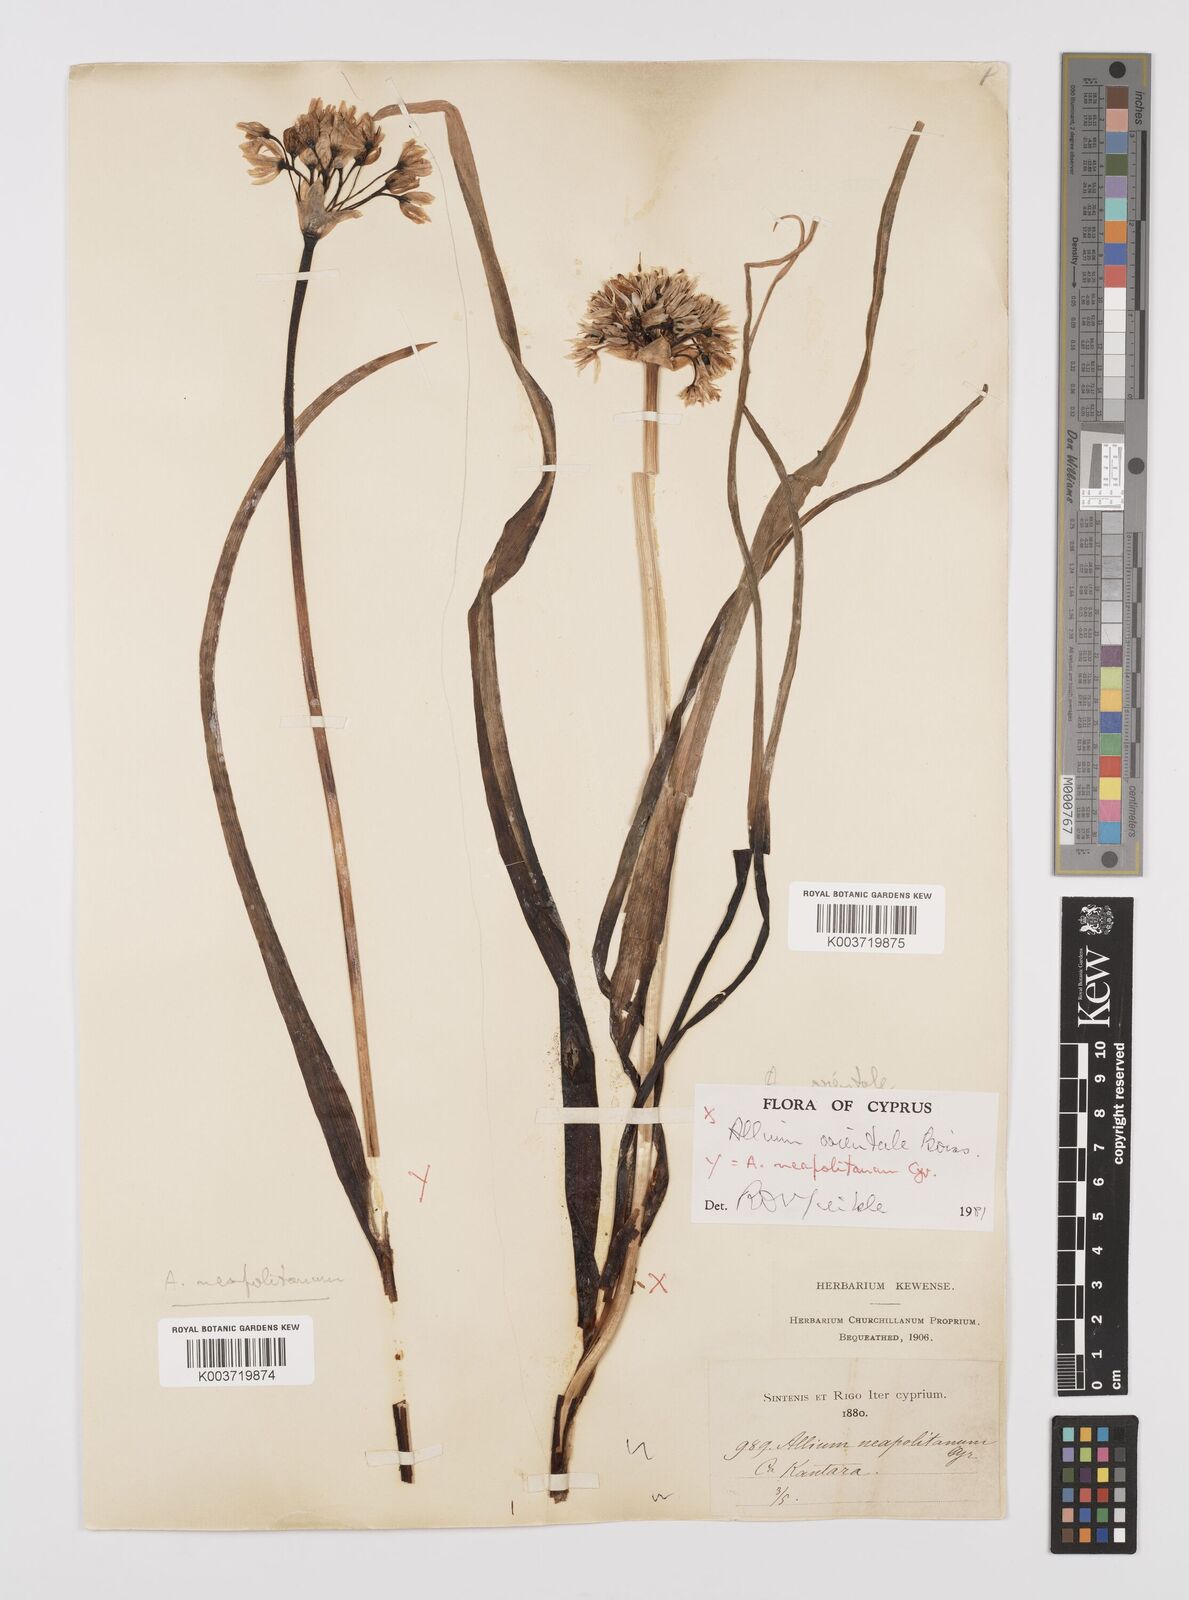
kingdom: Plantae
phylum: Tracheophyta
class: Liliopsida
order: Asparagales
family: Amaryllidaceae
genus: Allium
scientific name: Allium orientale
